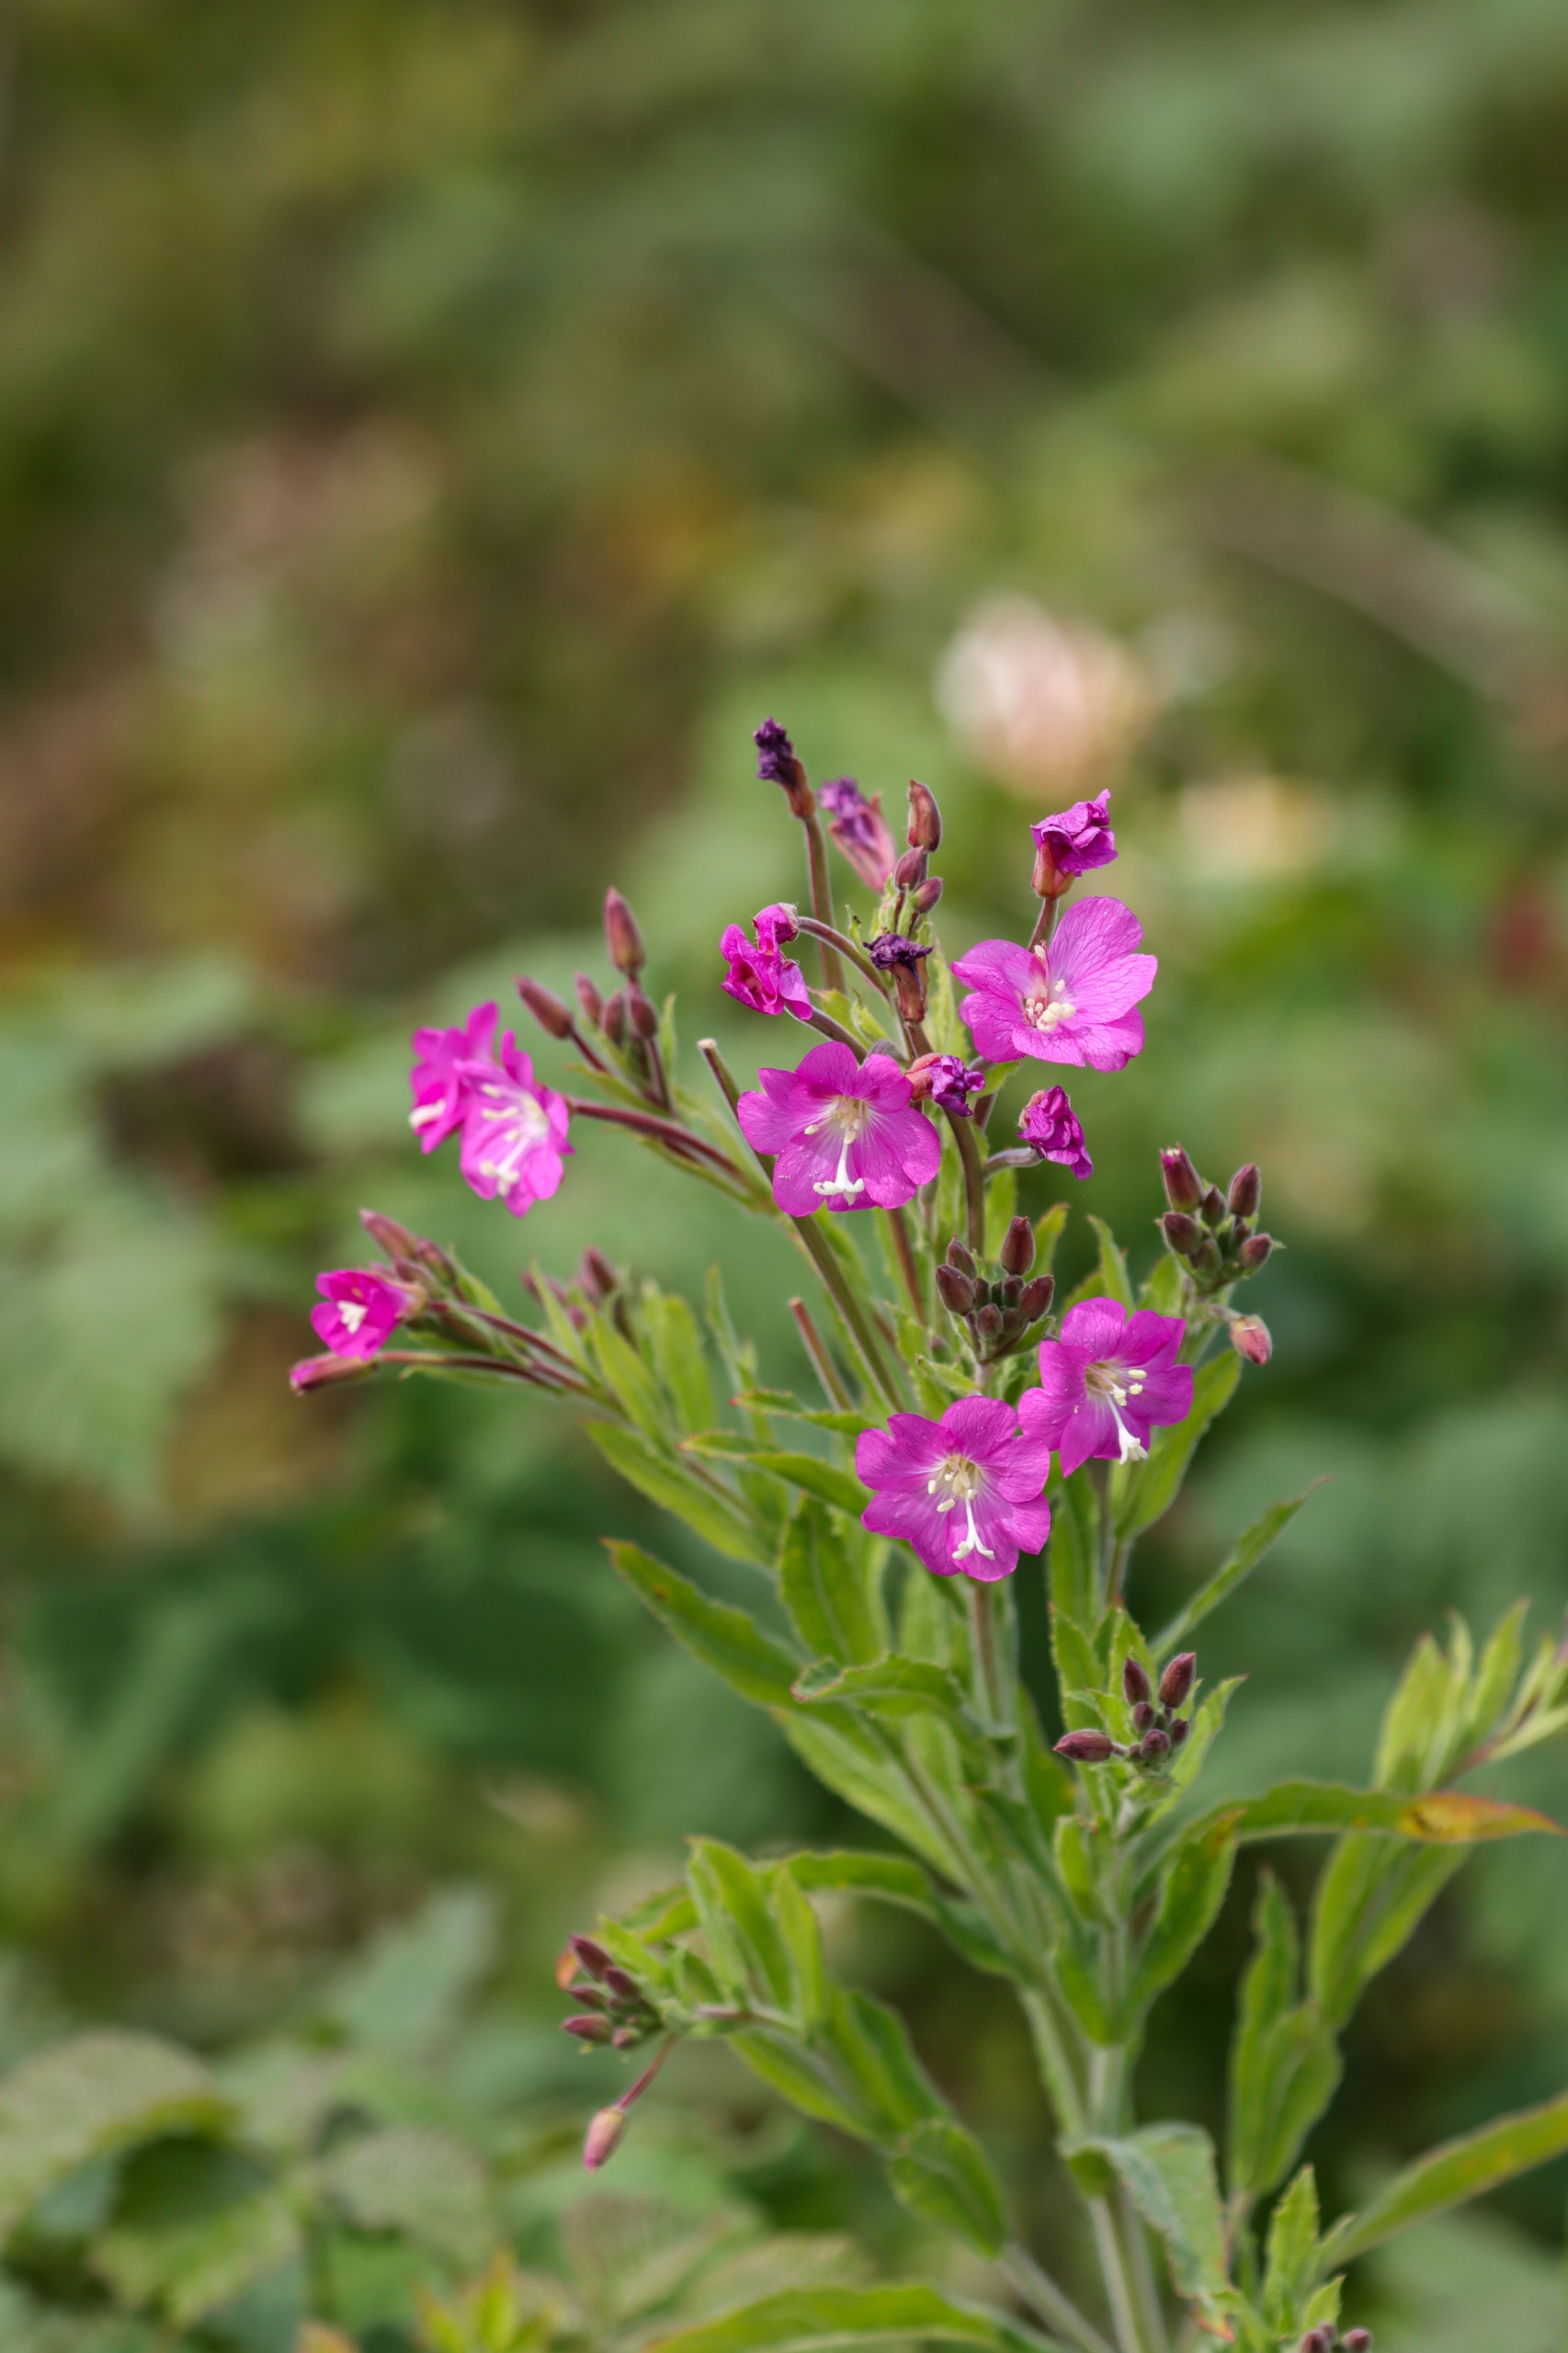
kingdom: Plantae
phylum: Tracheophyta
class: Magnoliopsida
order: Myrtales
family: Onagraceae
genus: Epilobium
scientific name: Epilobium hirsutum
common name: Lådden dueurt
